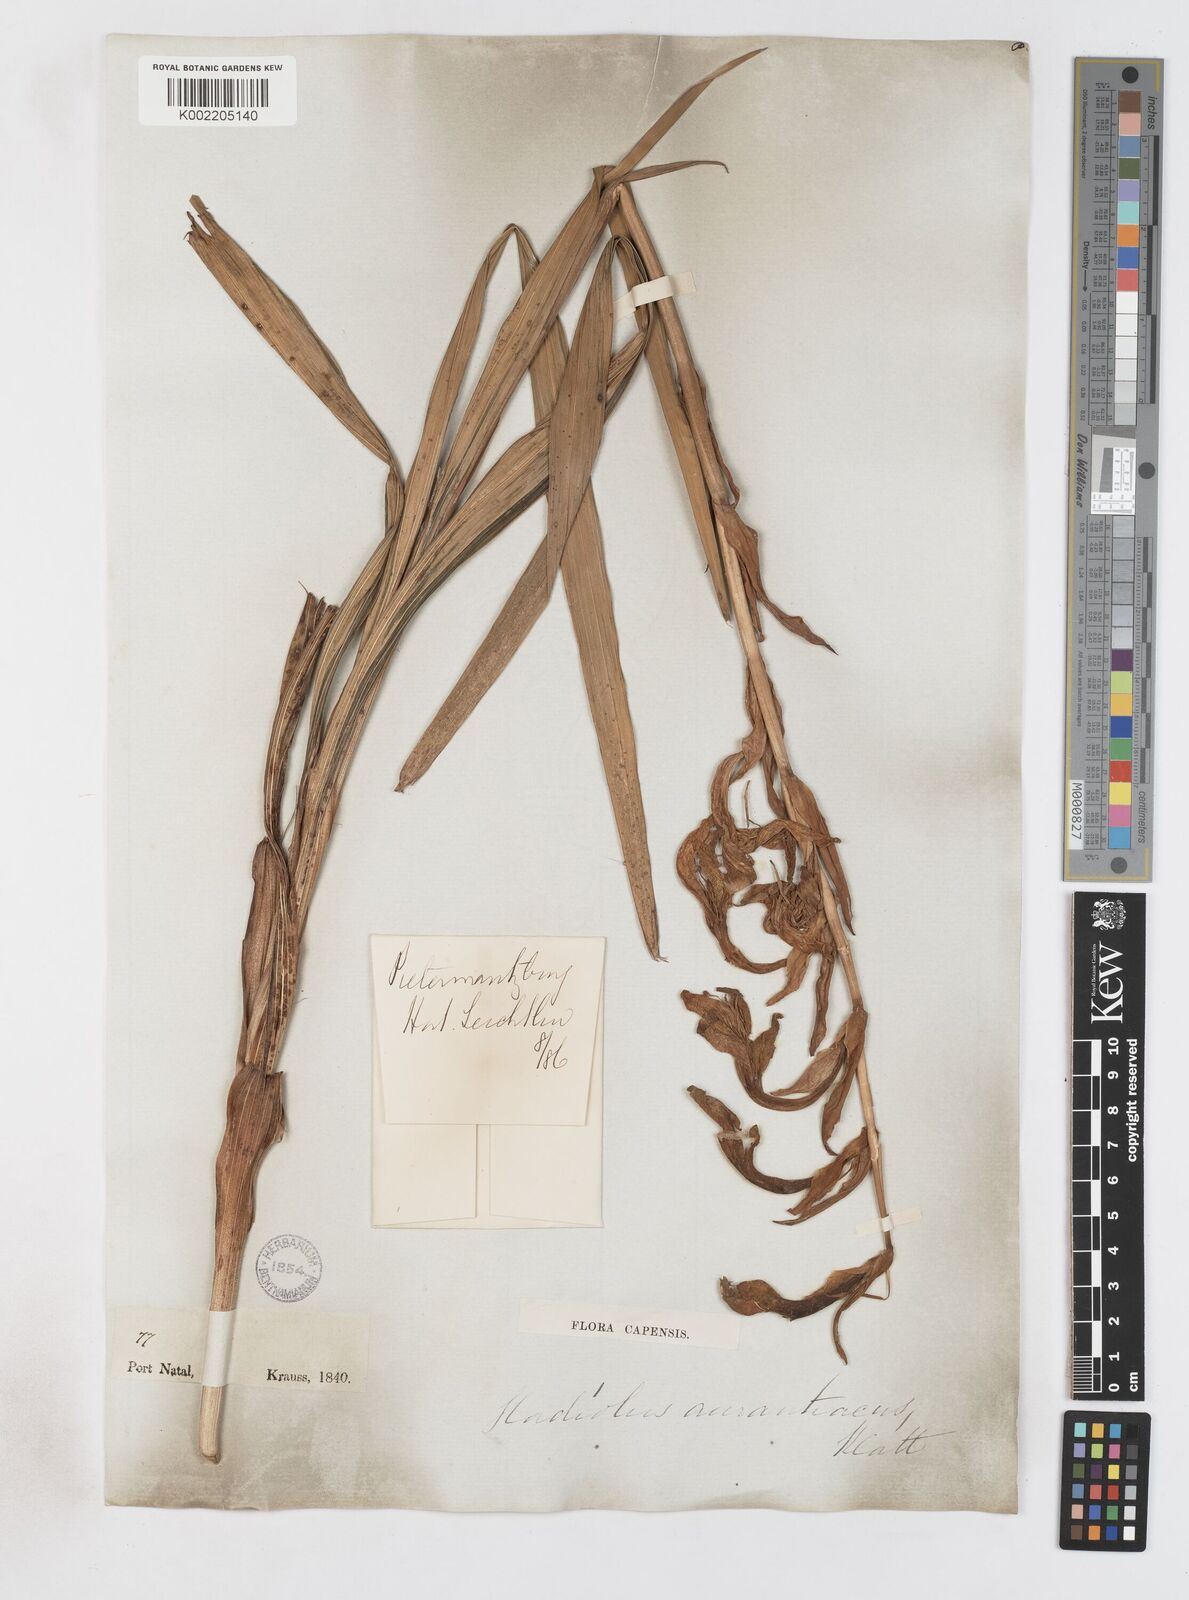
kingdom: Plantae
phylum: Tracheophyta
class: Liliopsida
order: Asparagales
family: Iridaceae
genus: Gladiolus
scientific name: Gladiolus dalenii
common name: Cornflag
